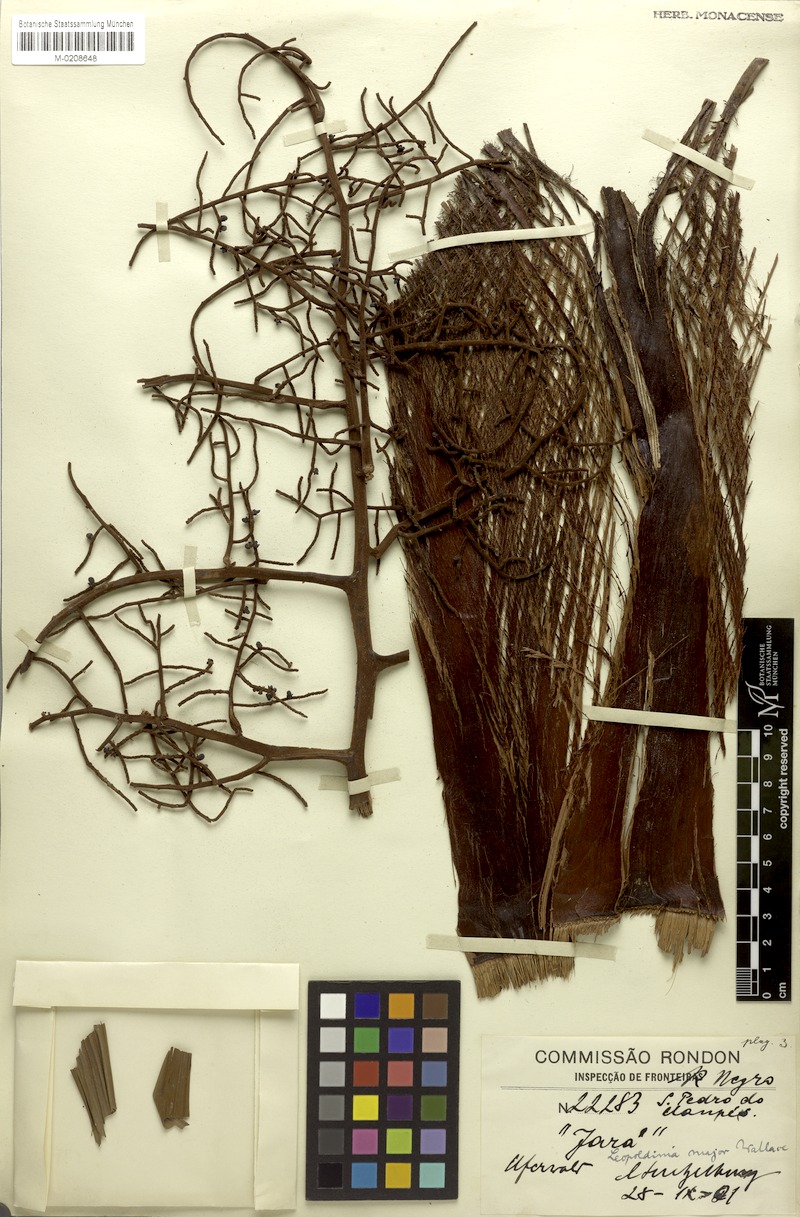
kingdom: Plantae
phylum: Tracheophyta
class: Liliopsida
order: Arecales
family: Arecaceae
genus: Leopoldinia
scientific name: Leopoldinia major
